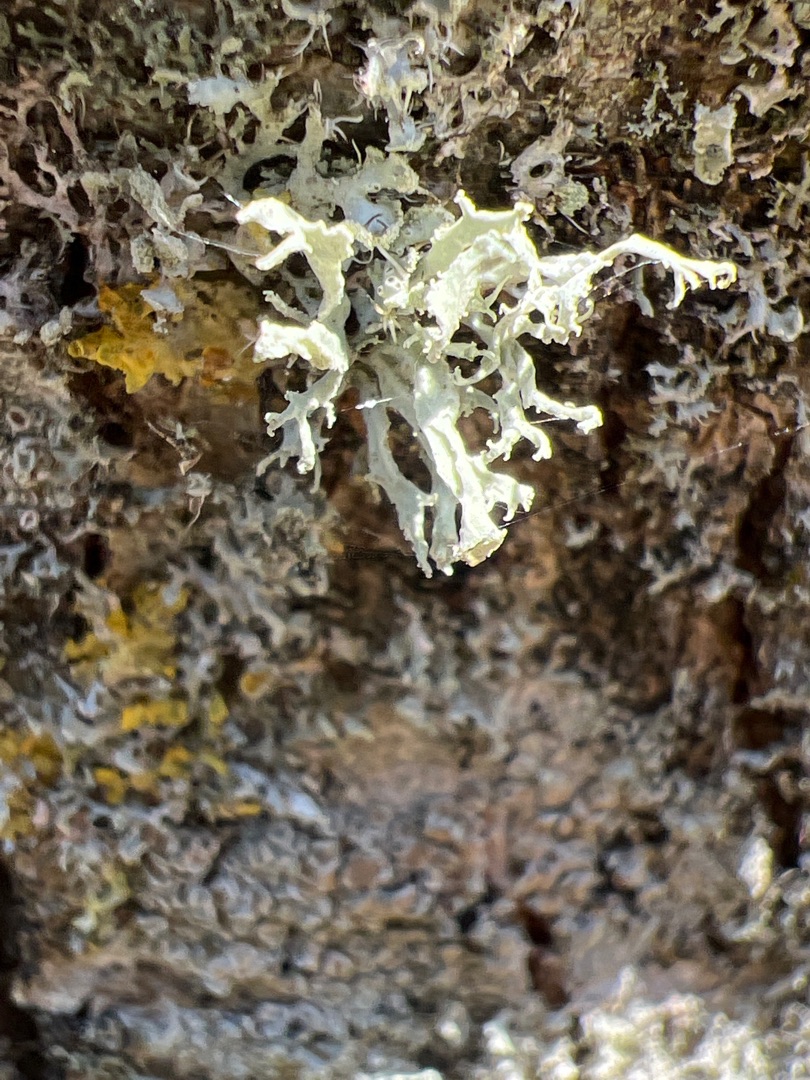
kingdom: Fungi
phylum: Ascomycota
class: Lecanoromycetes
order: Lecanorales
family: Ramalinaceae
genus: Ramalina
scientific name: Ramalina farinacea
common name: Melet grenlav
